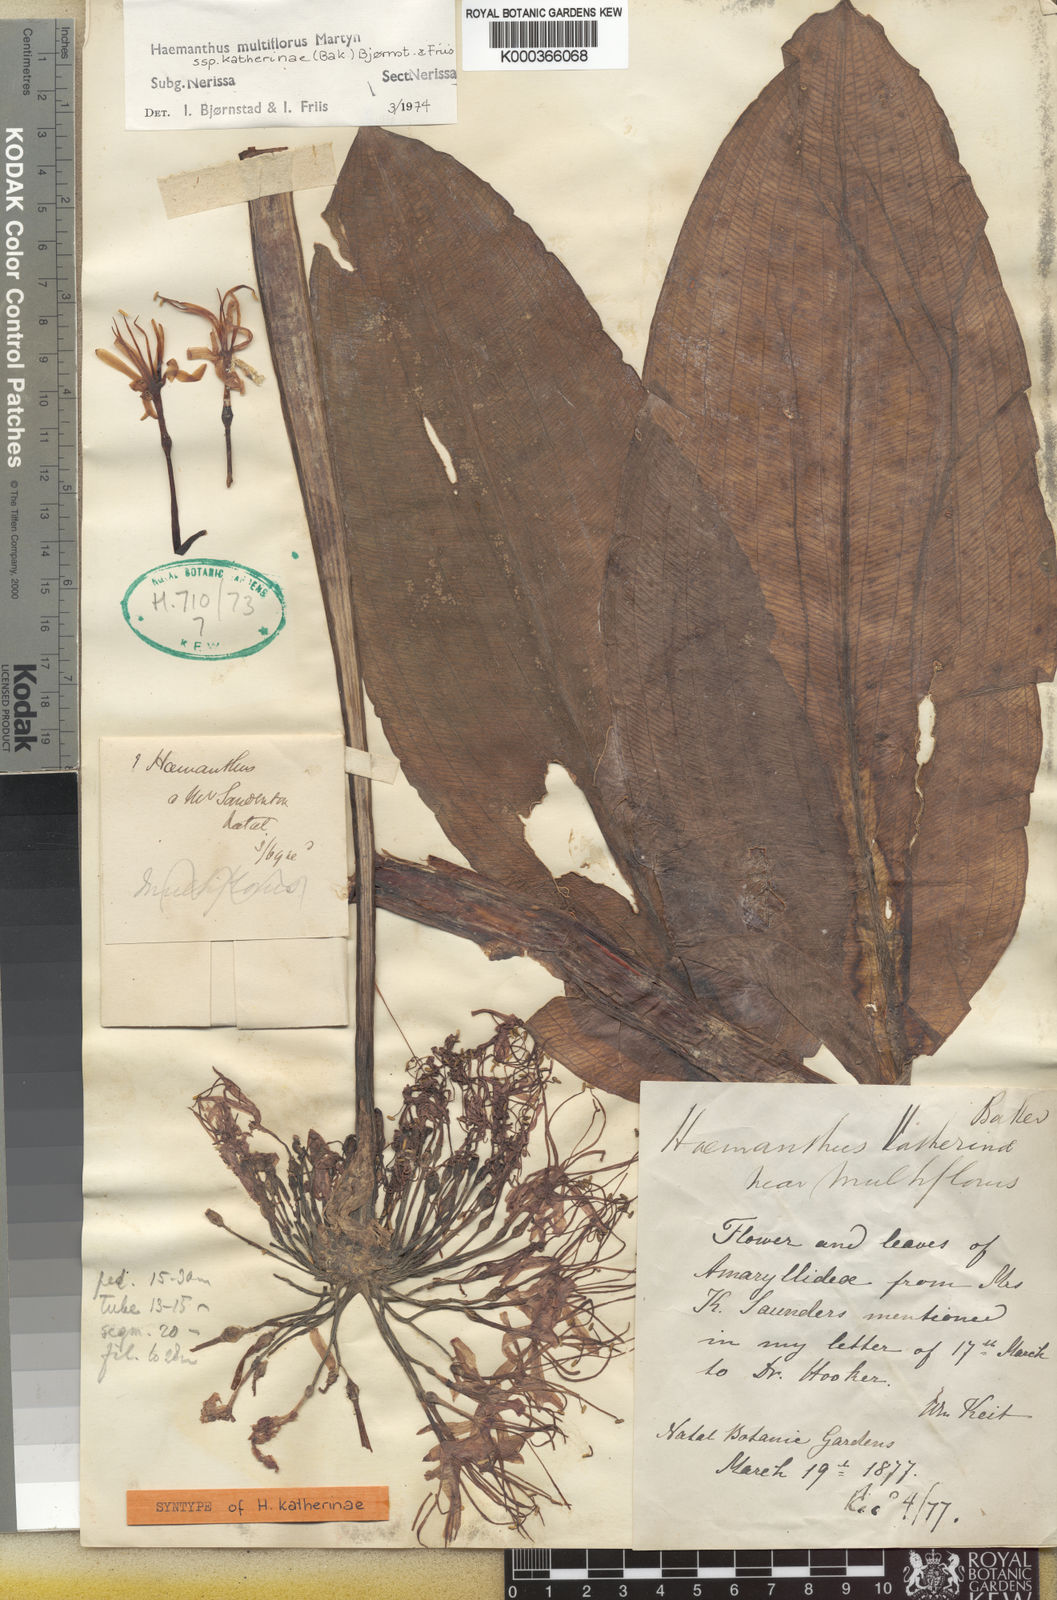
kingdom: Plantae
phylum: Tracheophyta
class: Liliopsida
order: Asparagales
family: Amaryllidaceae
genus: Scadoxus
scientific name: Scadoxus multiflorus
